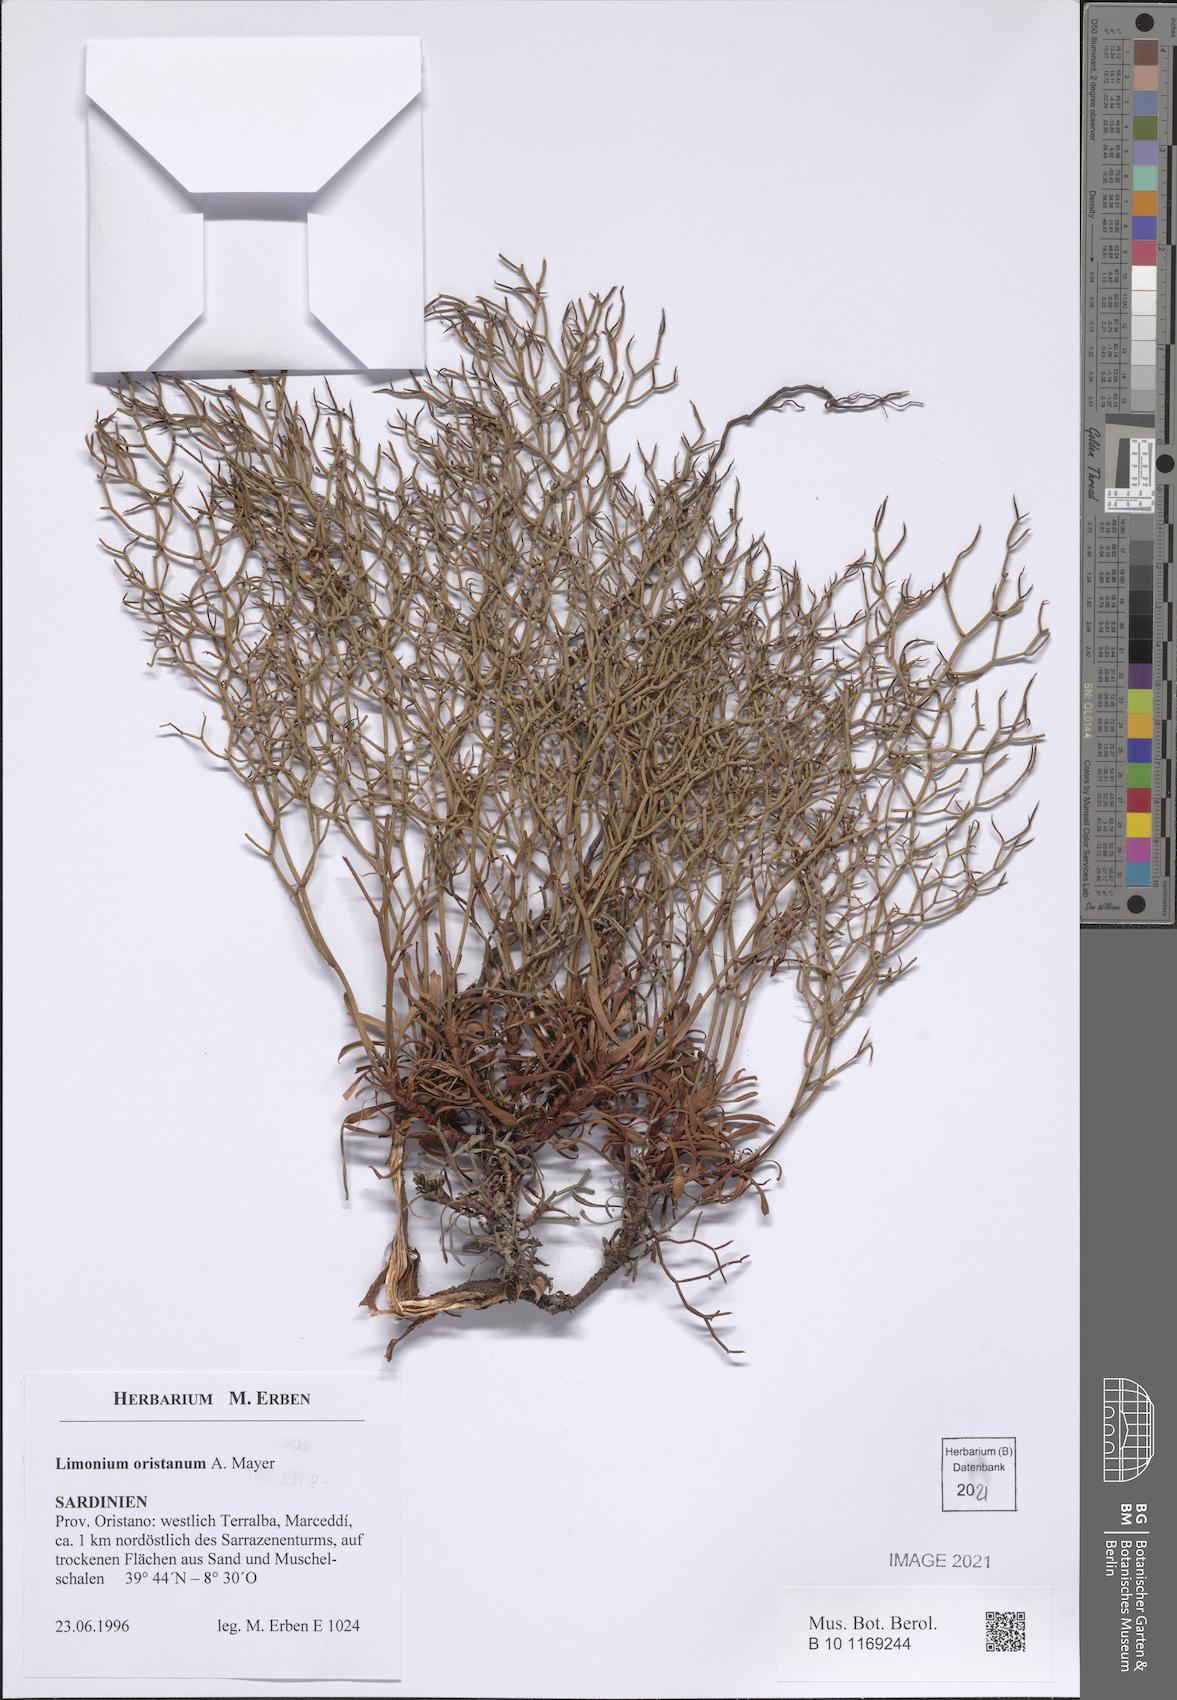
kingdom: Plantae
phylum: Tracheophyta
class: Magnoliopsida
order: Caryophyllales
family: Plumbaginaceae
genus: Limonium
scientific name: Limonium oristanum
